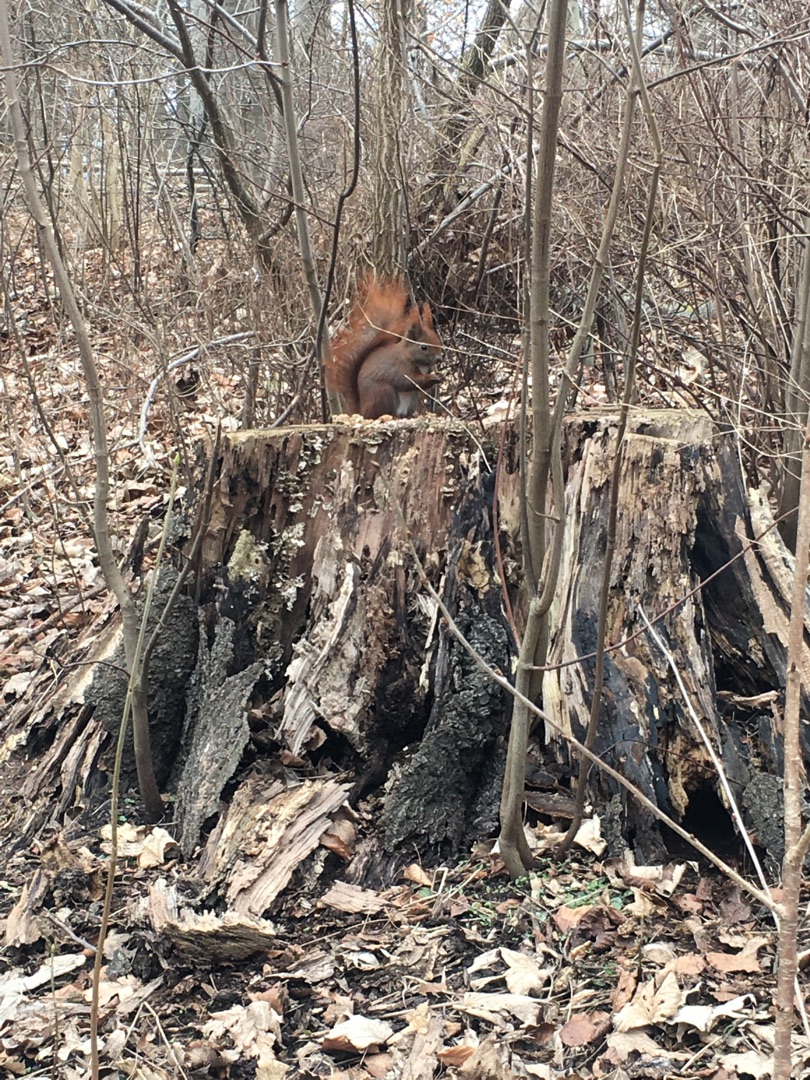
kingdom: Animalia
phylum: Chordata
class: Mammalia
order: Rodentia
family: Sciuridae
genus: Sciurus
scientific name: Sciurus vulgaris
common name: Egern
